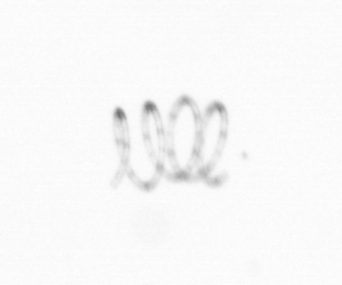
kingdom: Chromista
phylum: Ochrophyta
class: Bacillariophyceae
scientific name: Bacillariophyceae
